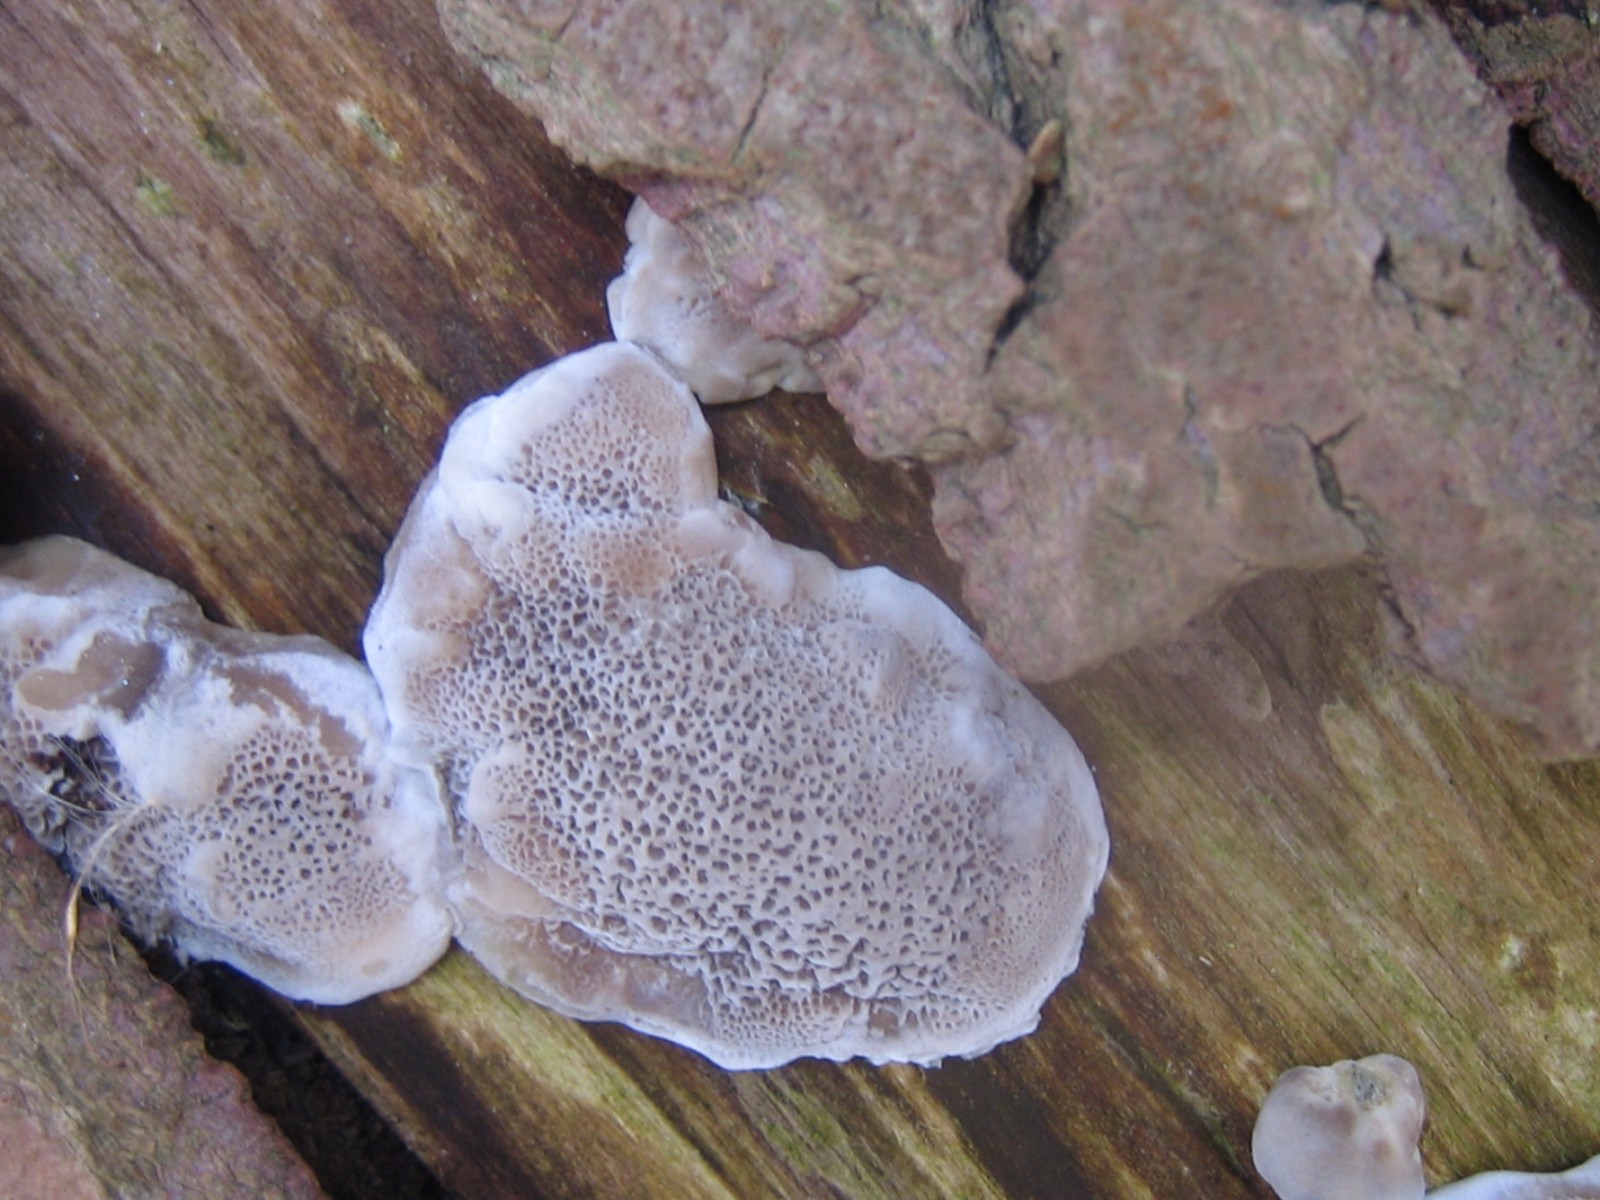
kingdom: Fungi
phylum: Basidiomycota
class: Agaricomycetes
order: Polyporales
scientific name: Polyporales
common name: poresvampordenen
